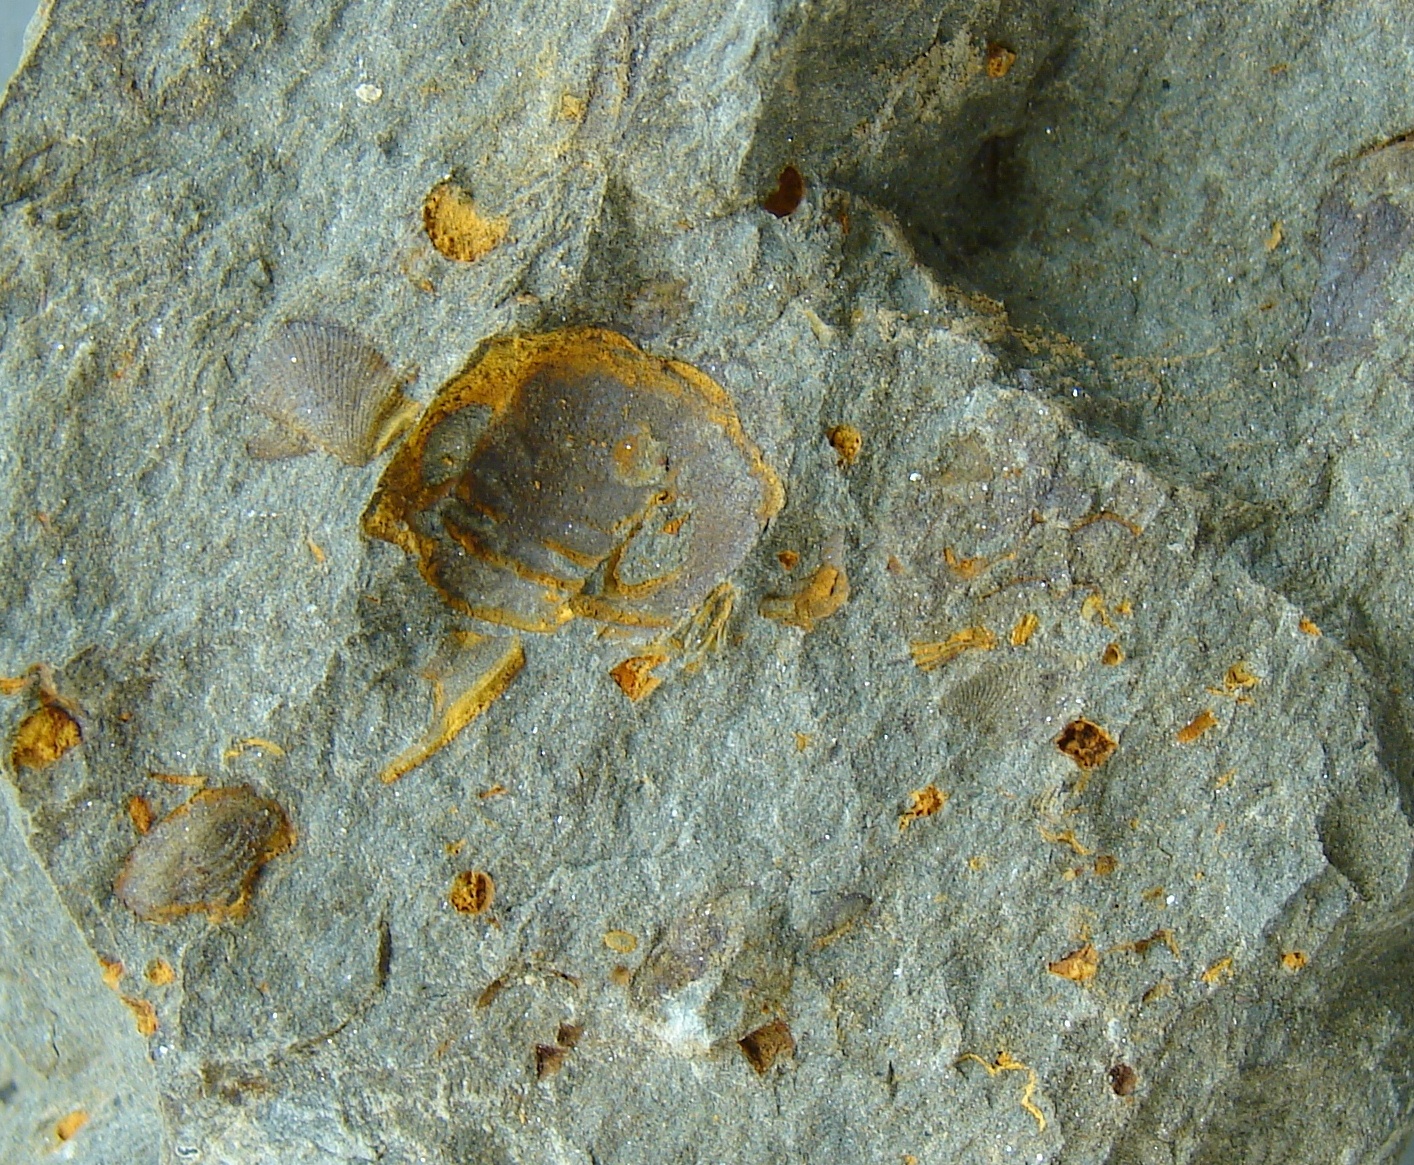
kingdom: Animalia
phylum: Arthropoda
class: Trilobita
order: Phacopida
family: Acastidae
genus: Acastoides
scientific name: Acastoides
